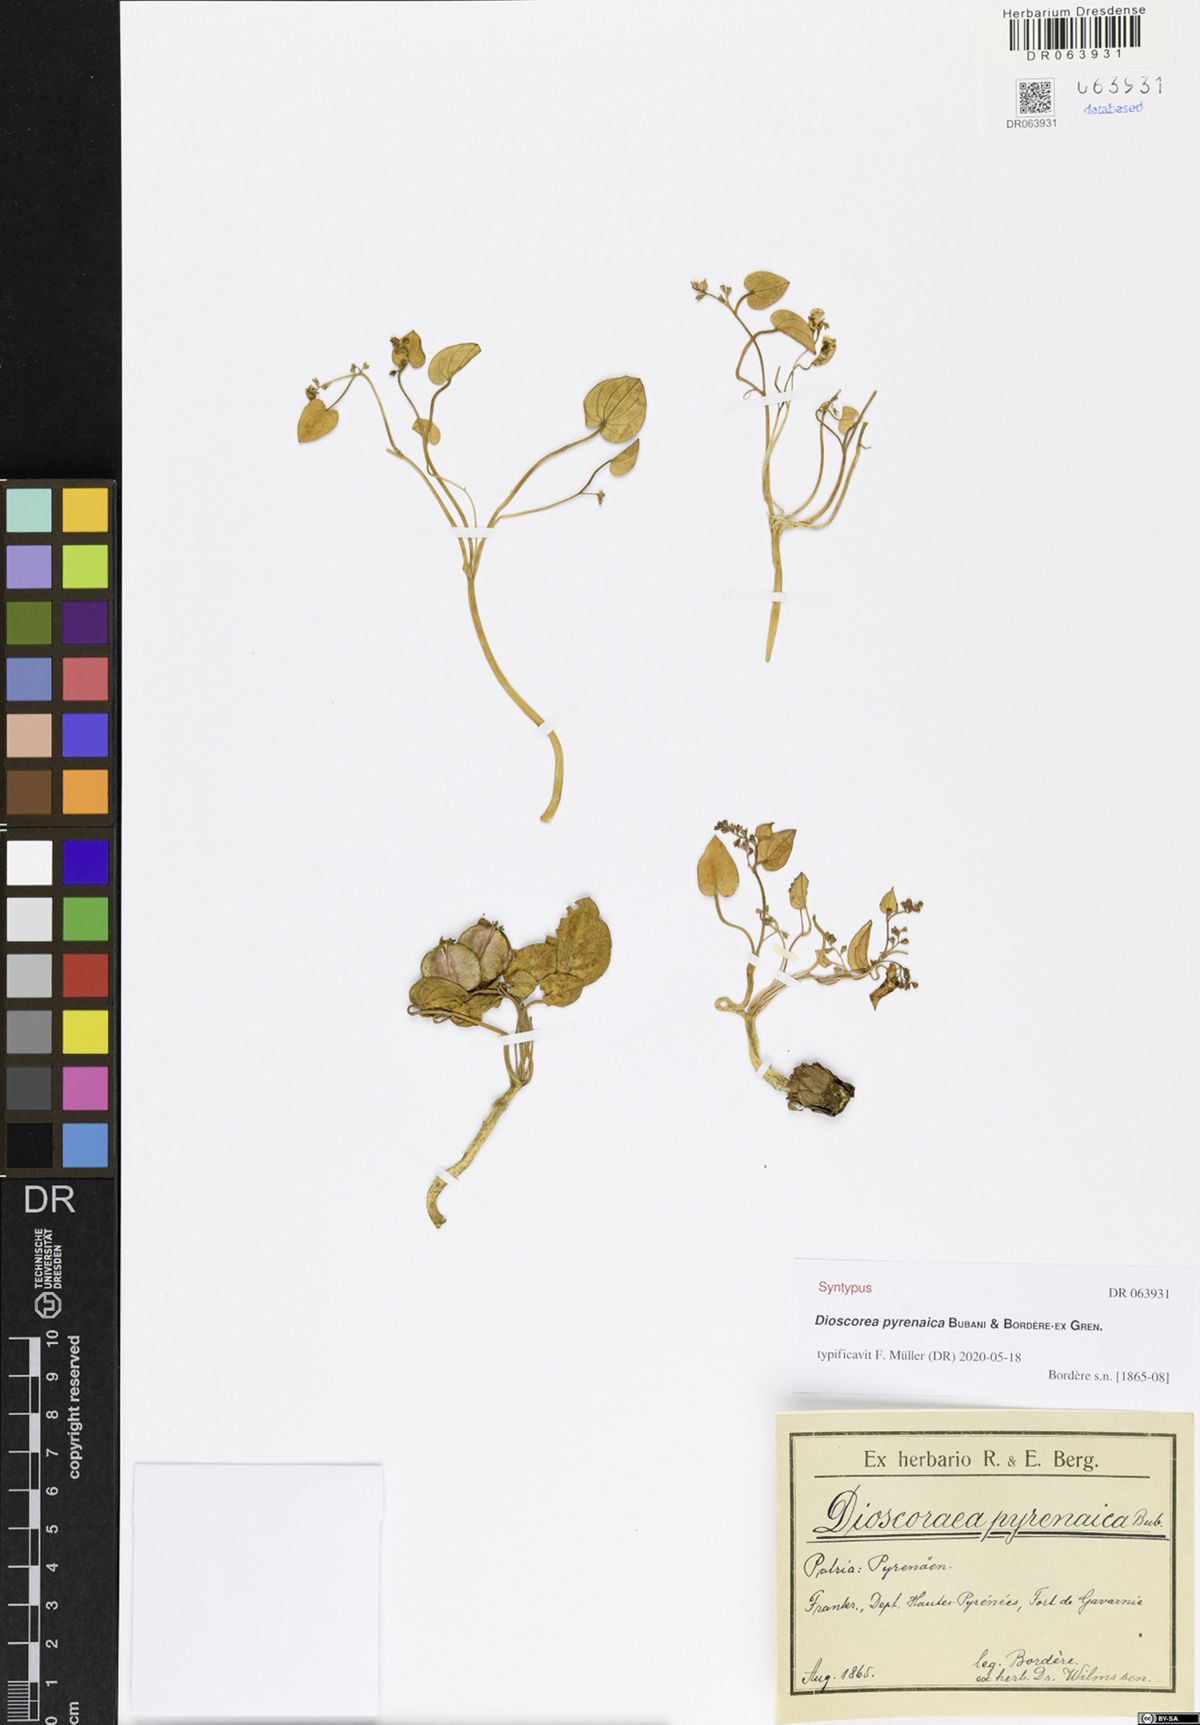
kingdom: Plantae
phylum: Tracheophyta
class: Liliopsida
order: Dioscoreales
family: Dioscoreaceae
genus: Dioscorea
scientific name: Dioscorea pyrenaica
